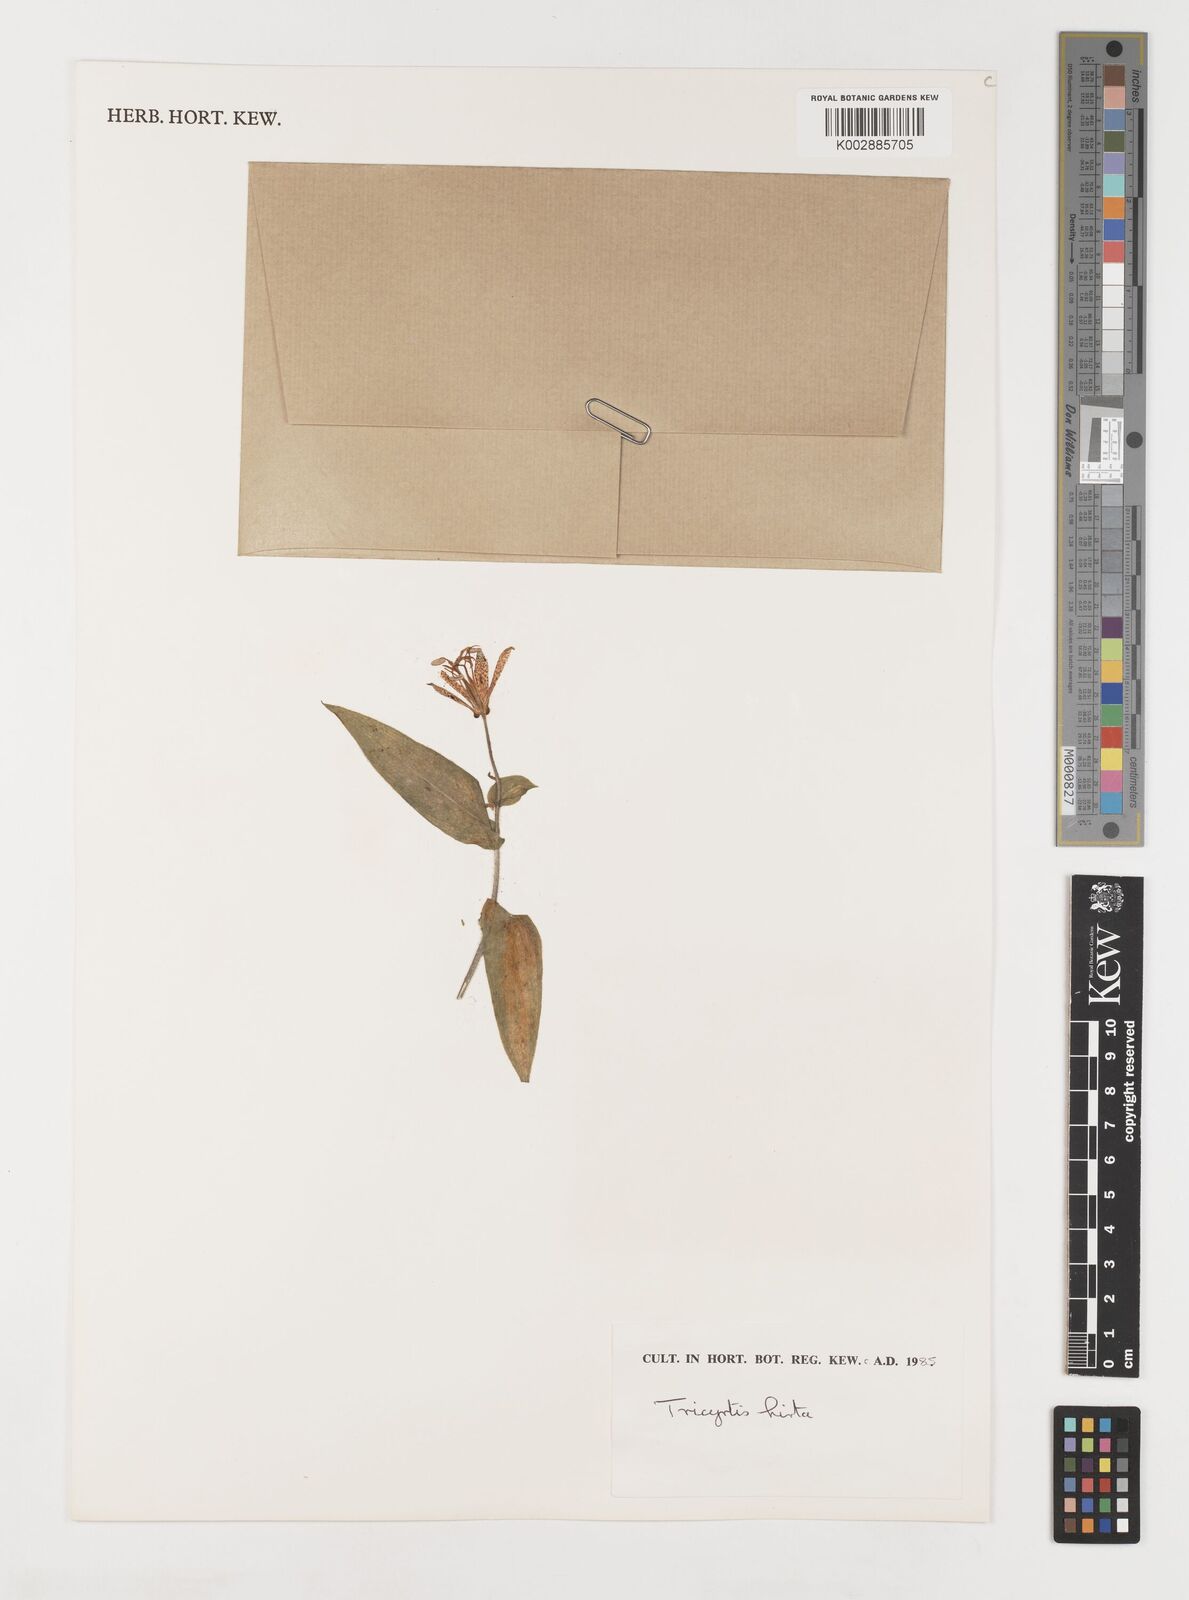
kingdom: Plantae
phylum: Tracheophyta
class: Liliopsida
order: Liliales
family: Liliaceae
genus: Tricyrtis
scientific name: Tricyrtis hirta
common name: Toadlily
